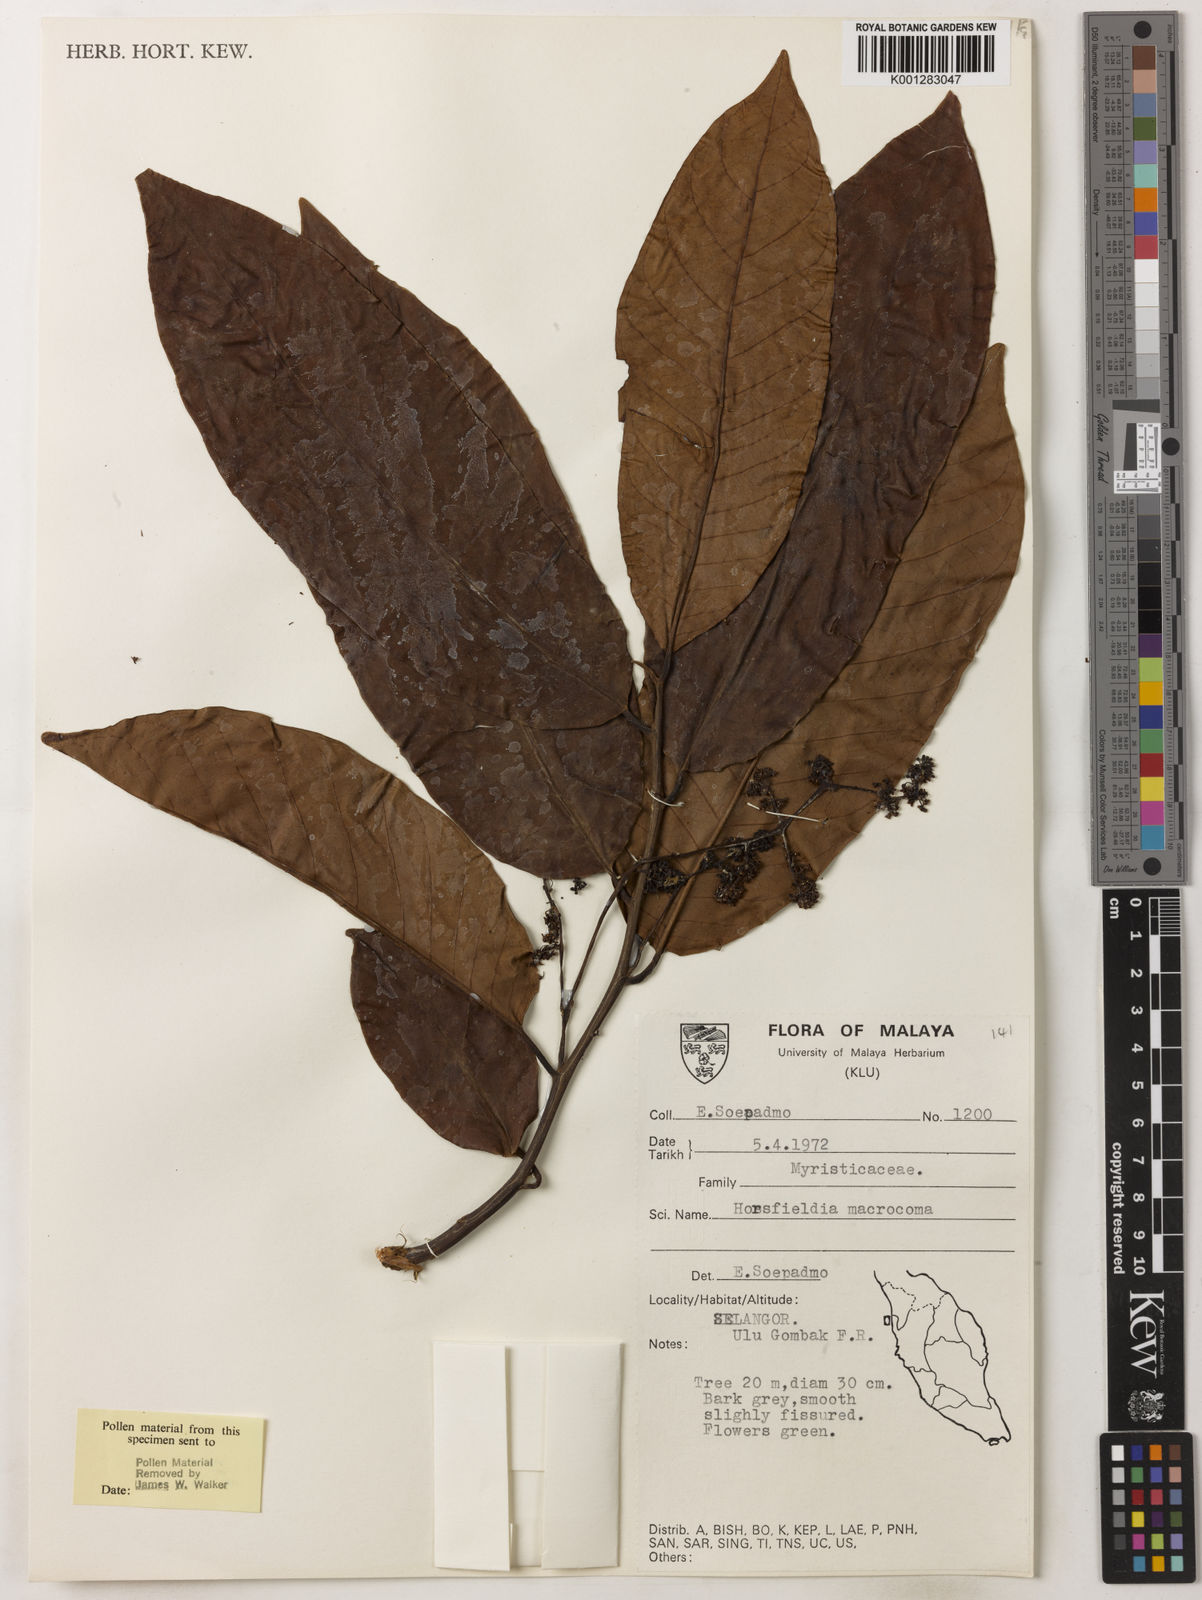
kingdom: Plantae
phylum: Tracheophyta
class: Magnoliopsida
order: Magnoliales
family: Myristicaceae
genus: Endocomia
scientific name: Endocomia canarioides
